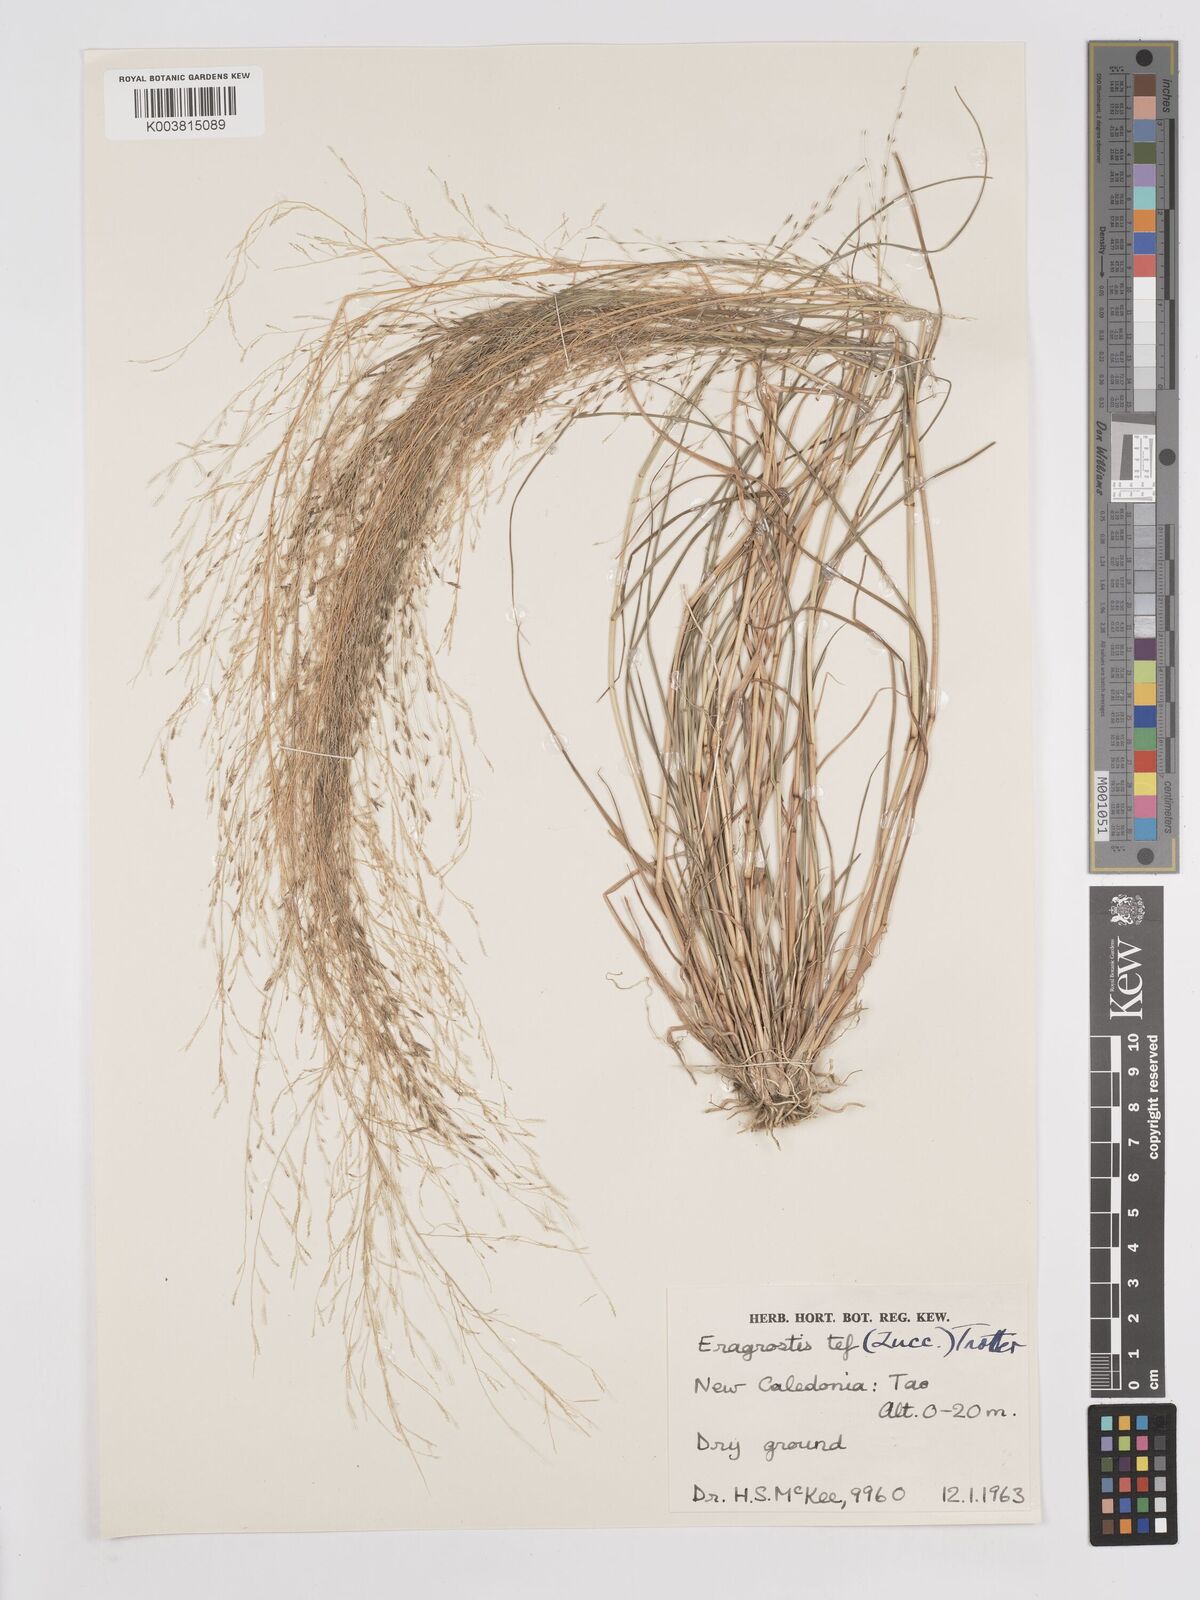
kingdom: Plantae
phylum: Tracheophyta
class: Liliopsida
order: Poales
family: Poaceae
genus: Eragrostis
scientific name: Eragrostis tef
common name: Teff
